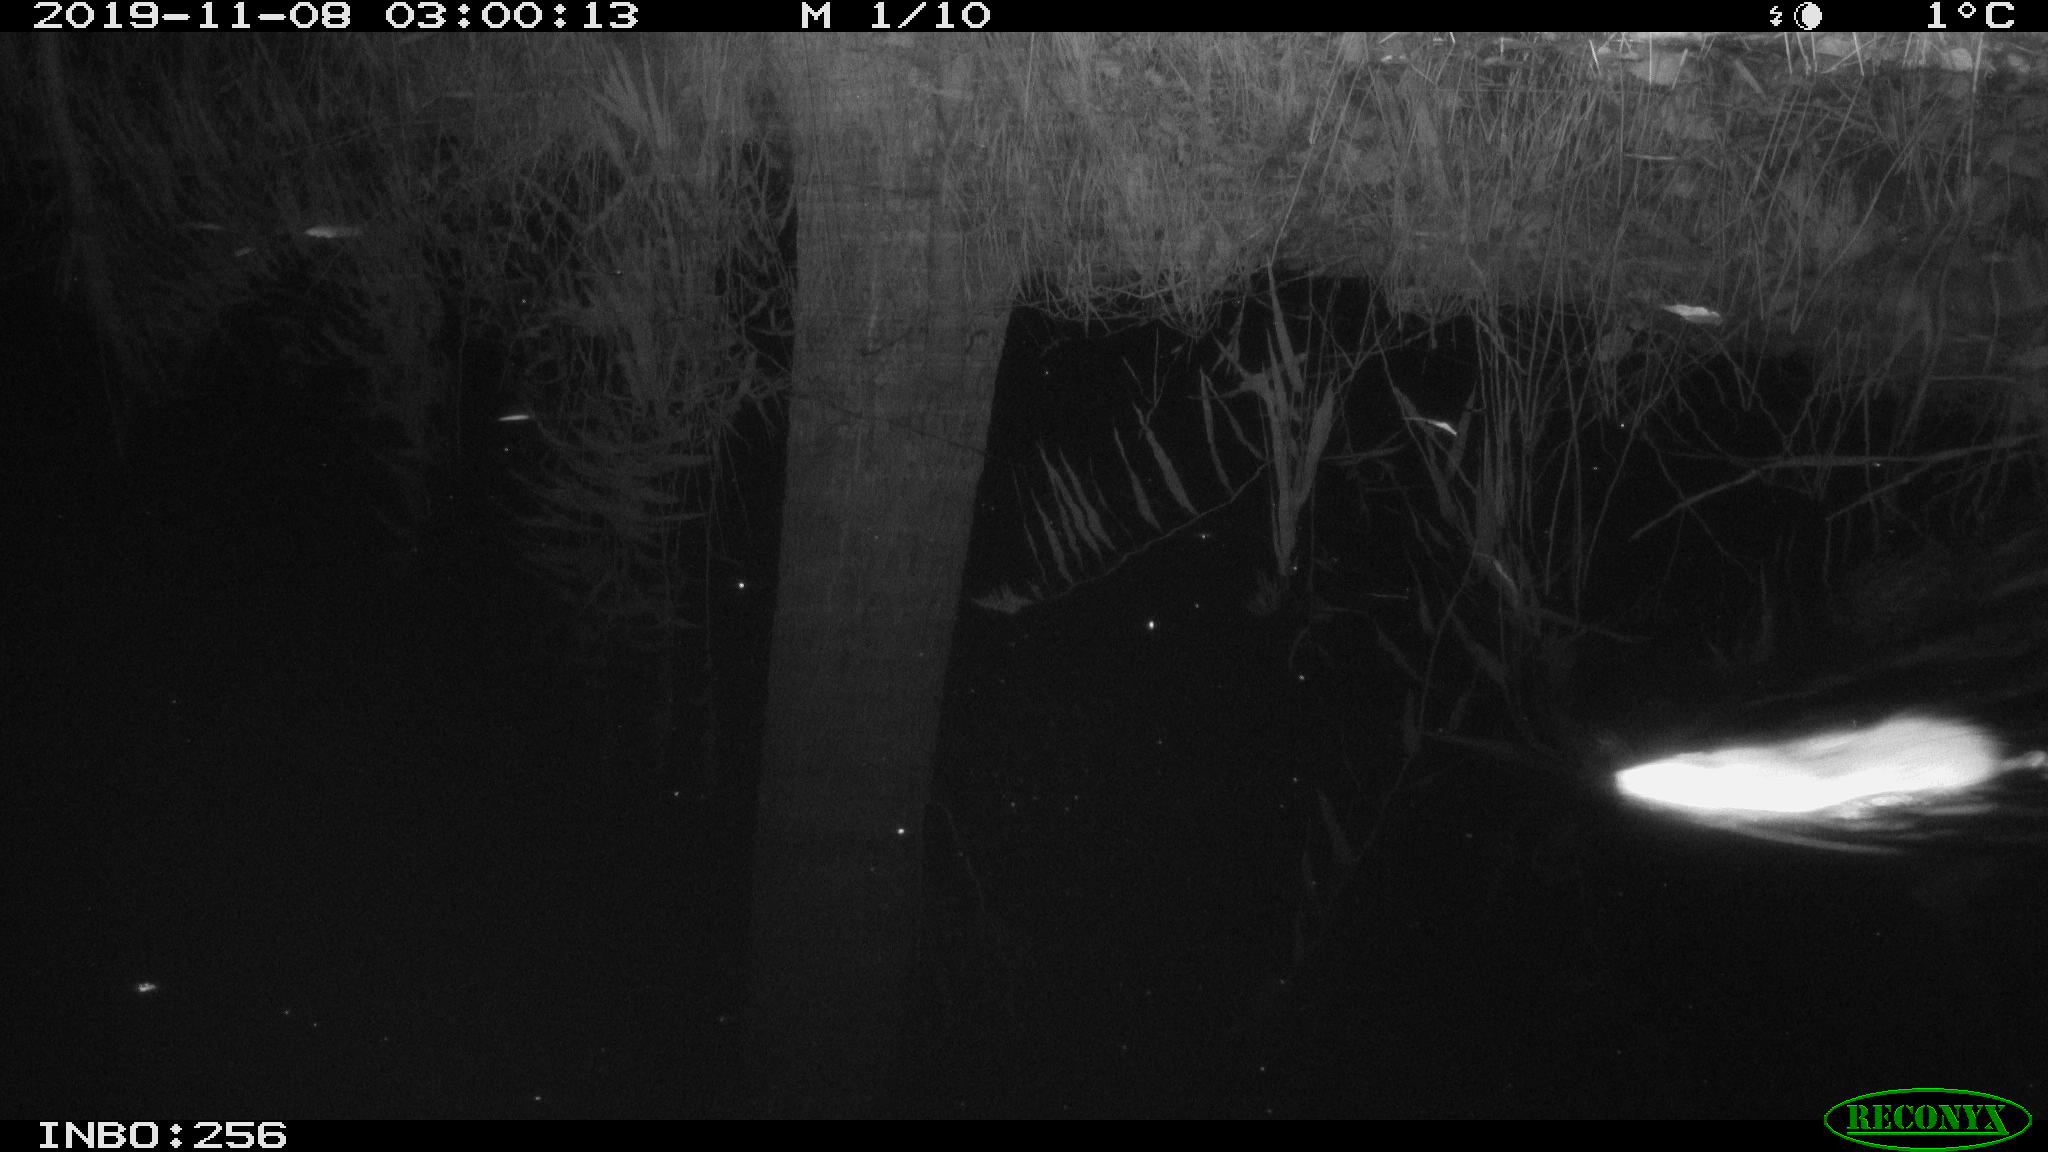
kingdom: Animalia
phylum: Chordata
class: Mammalia
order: Rodentia
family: Muridae
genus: Rattus
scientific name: Rattus norvegicus
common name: Brown rat
